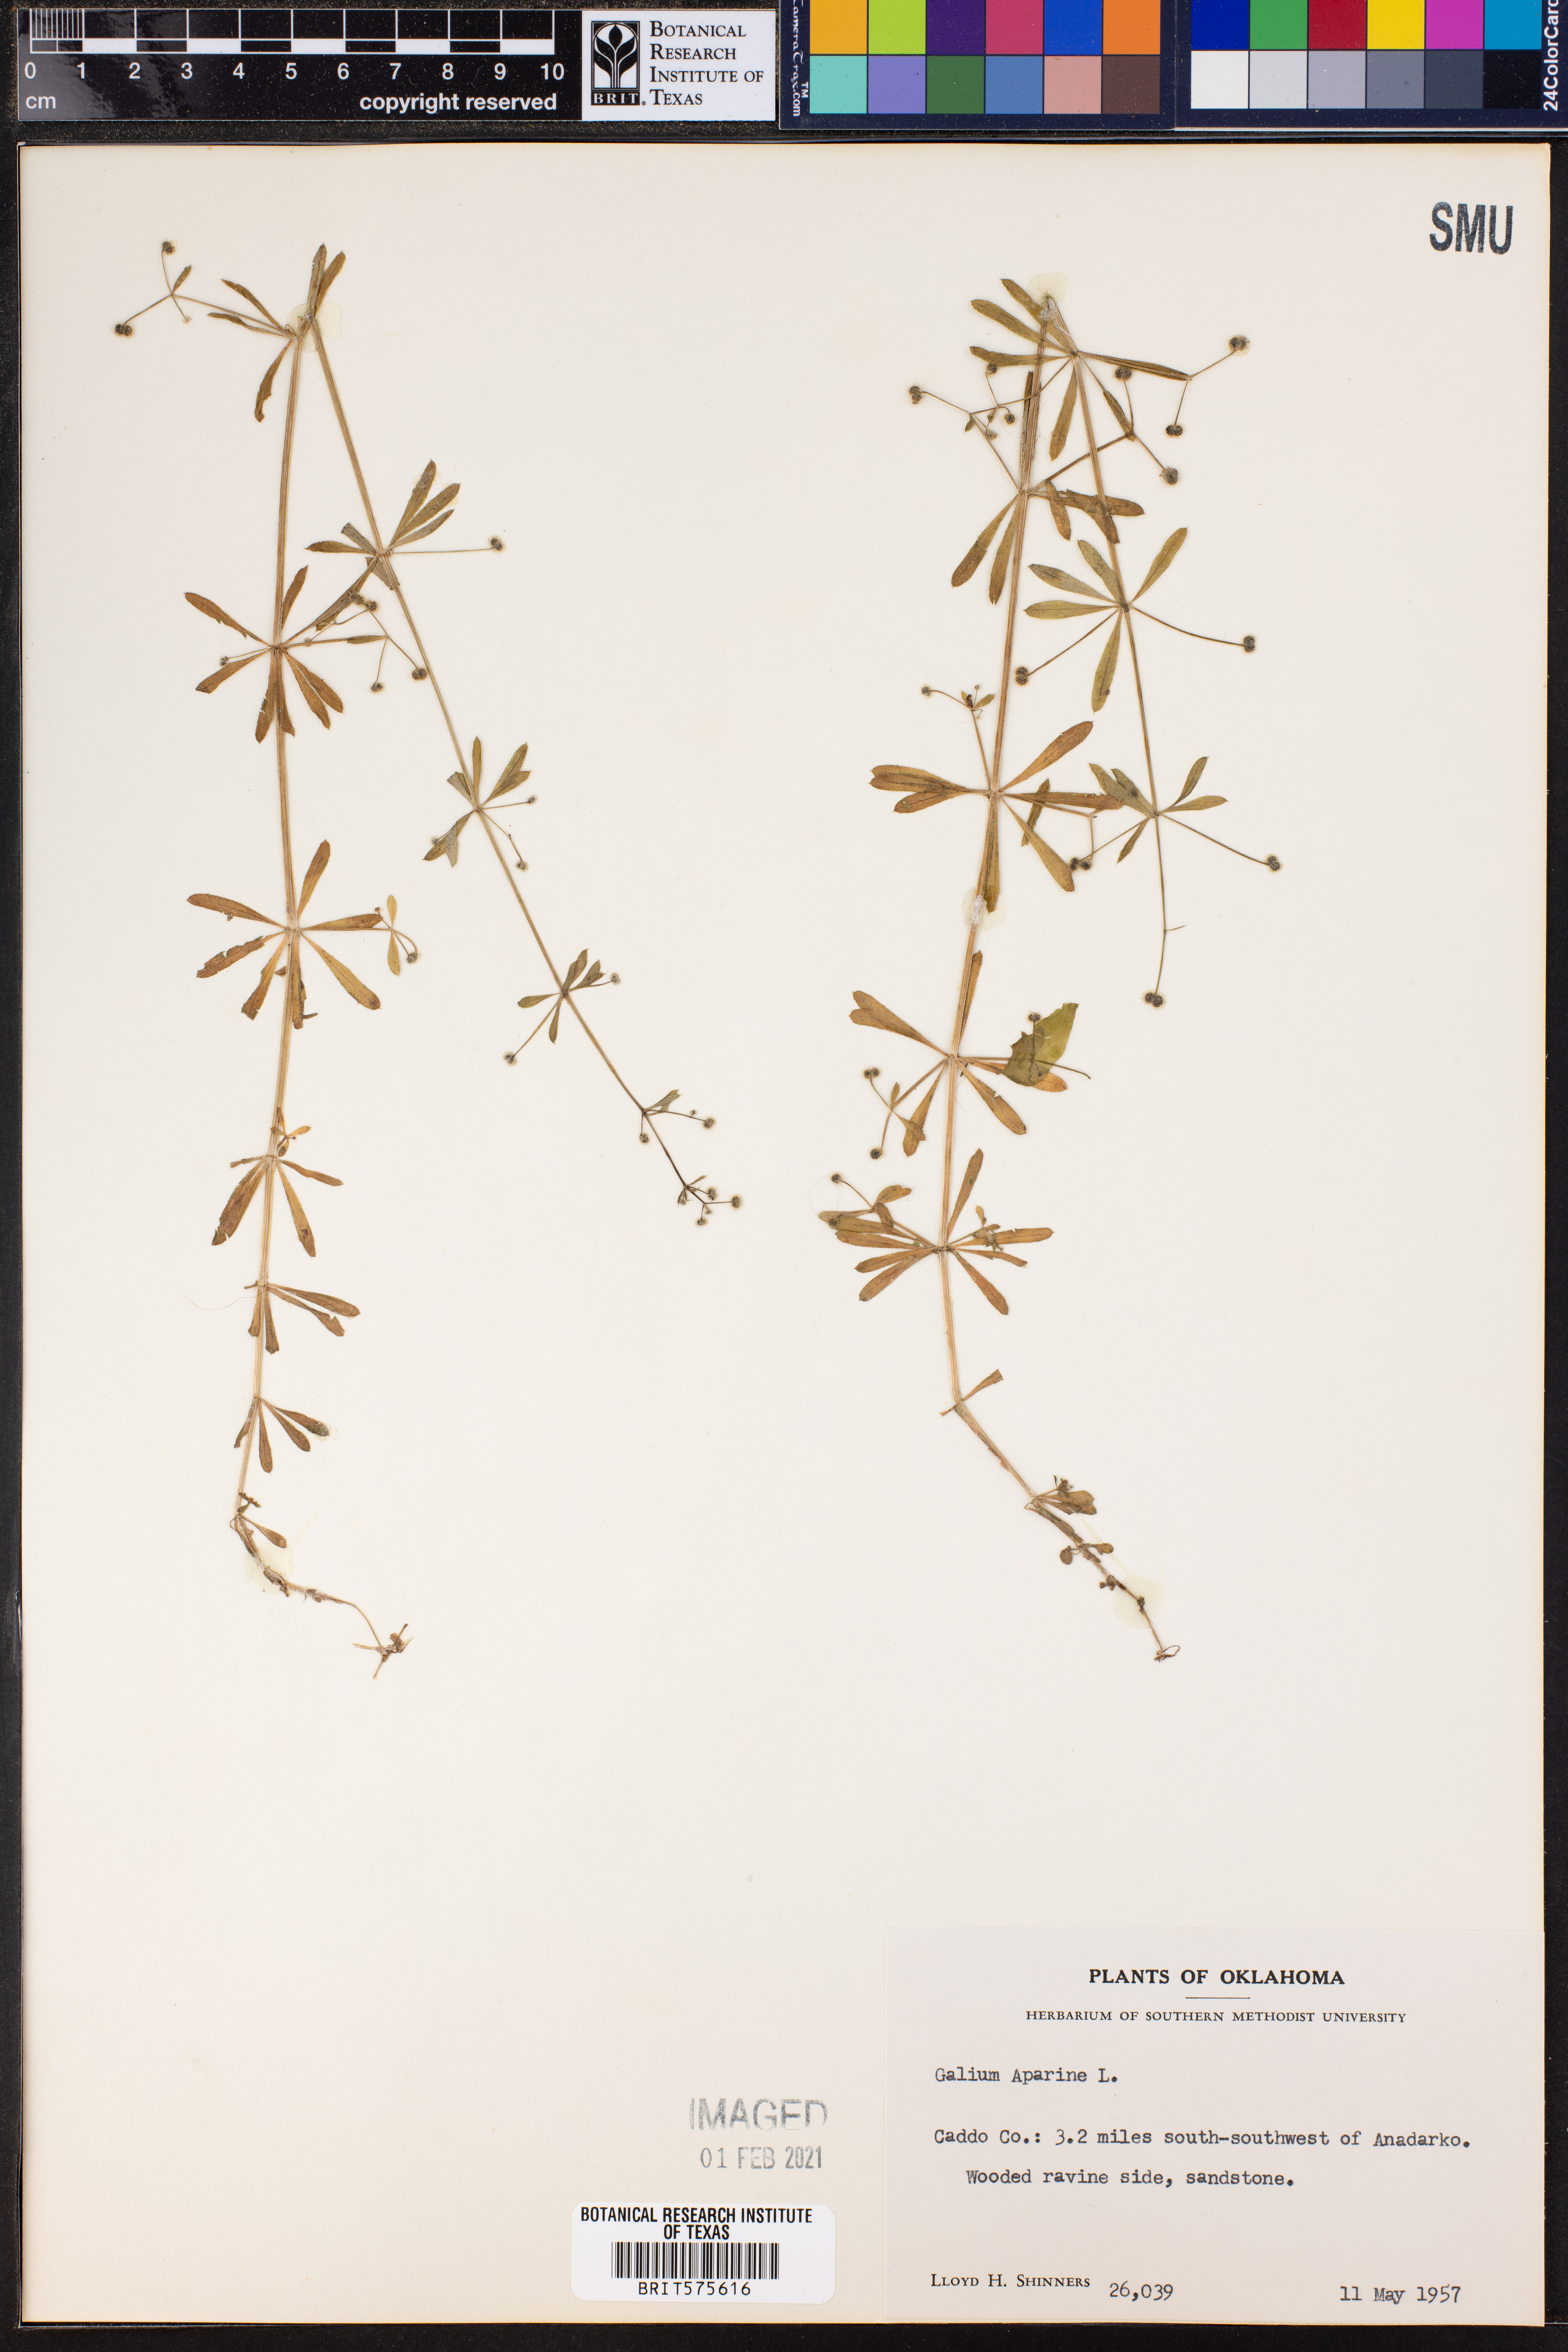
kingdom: Plantae
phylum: Tracheophyta
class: Magnoliopsida
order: Gentianales
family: Rubiaceae
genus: Galium
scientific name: Galium aparine
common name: Cleavers
